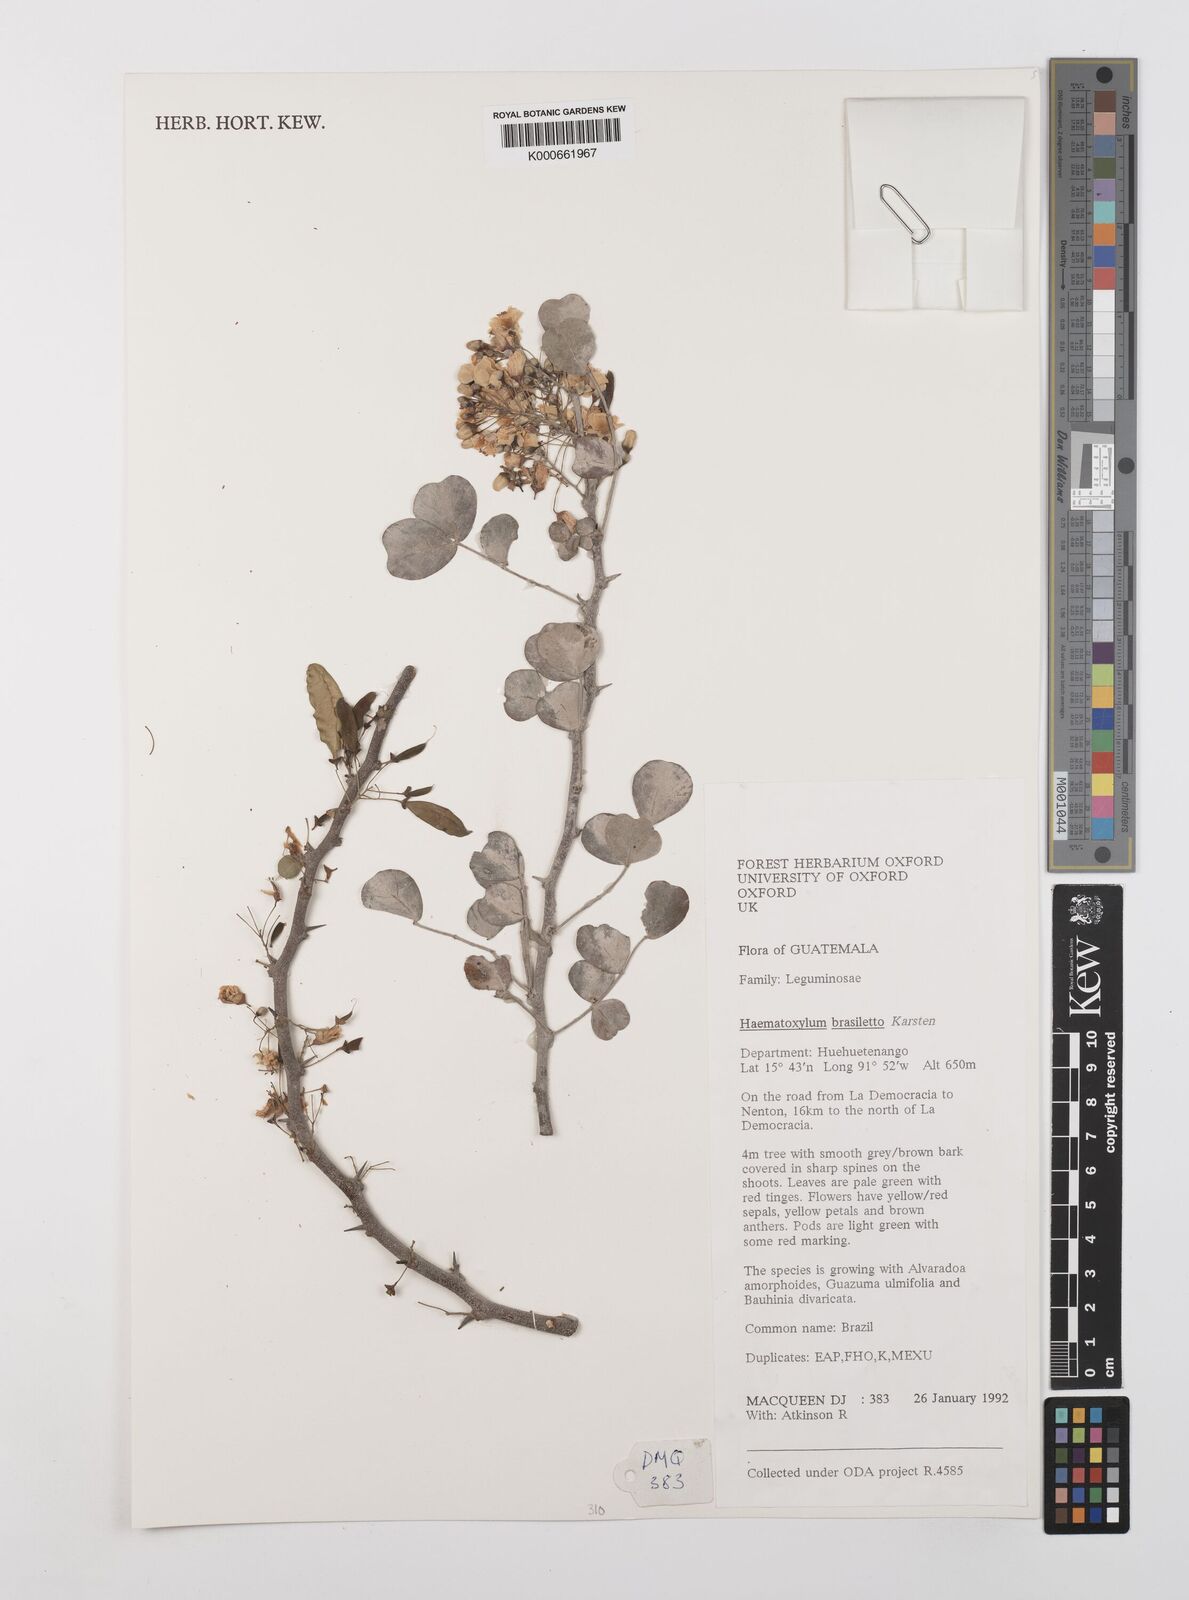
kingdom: Plantae
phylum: Tracheophyta
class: Magnoliopsida
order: Fabales
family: Fabaceae
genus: Haematoxylum
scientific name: Haematoxylum brasiletto
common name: Peachwood
